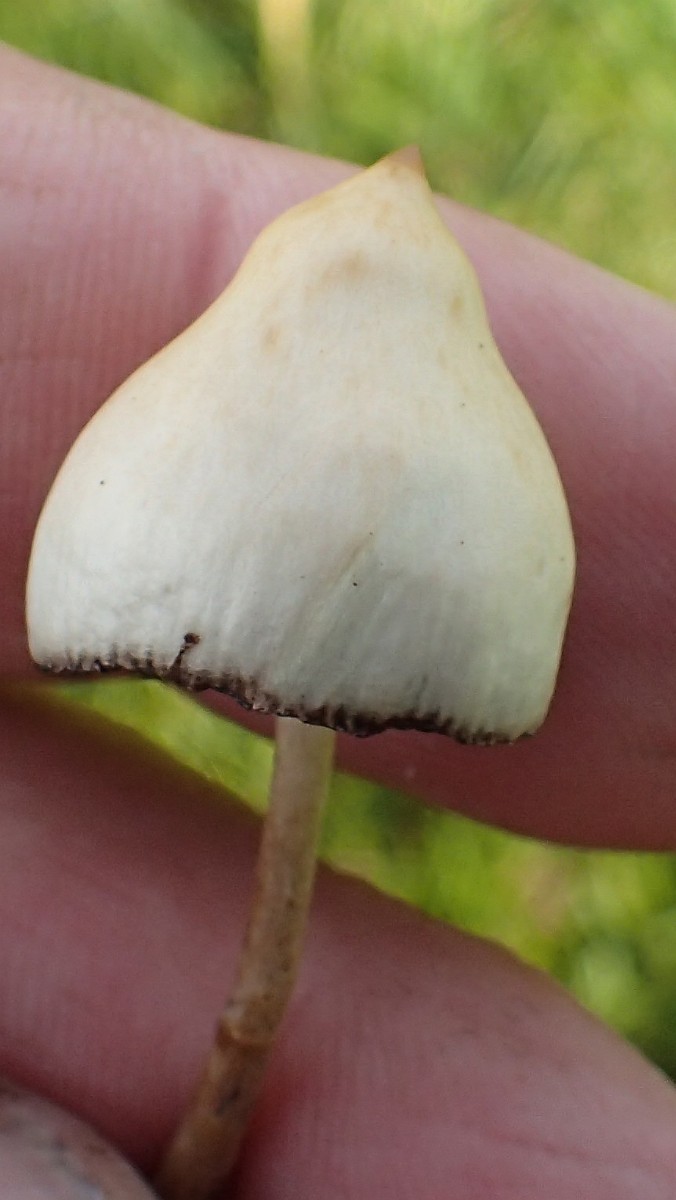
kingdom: Fungi
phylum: Basidiomycota
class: Agaricomycetes
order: Agaricales
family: Hymenogastraceae
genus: Psilocybe
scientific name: Psilocybe semilanceata
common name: spids nøgenhat
